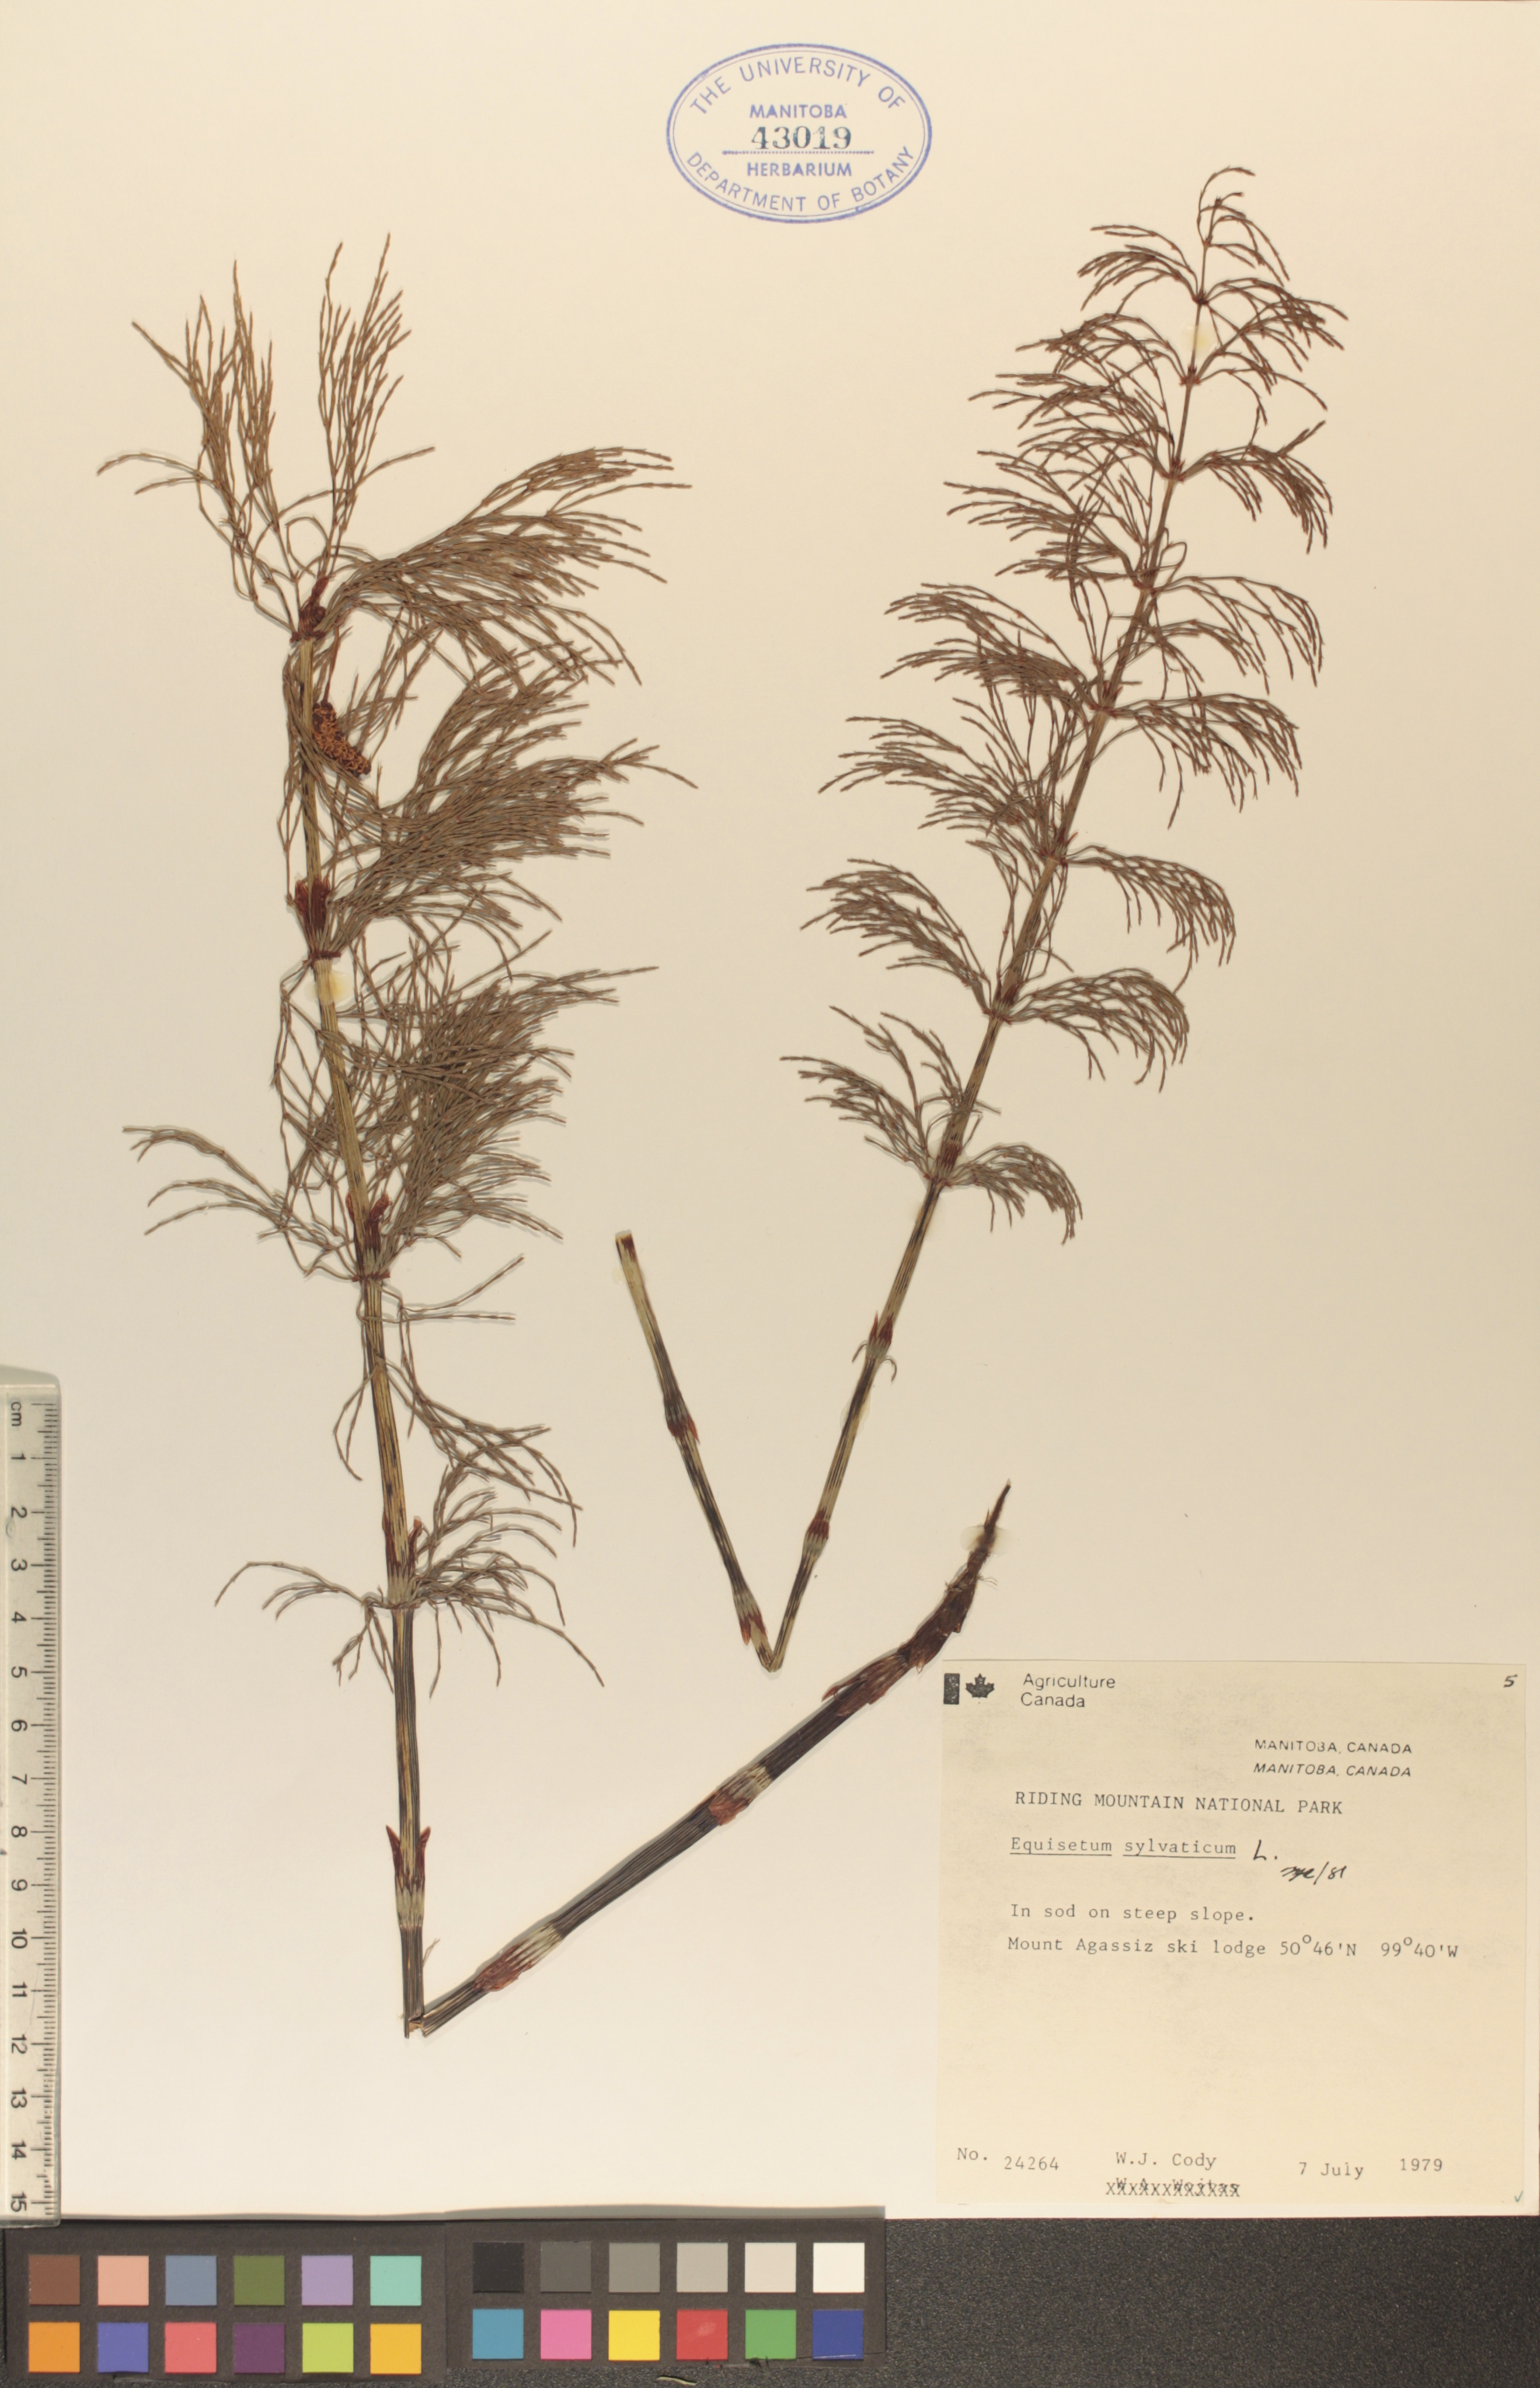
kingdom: Plantae
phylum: Tracheophyta
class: Polypodiopsida
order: Equisetales
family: Equisetaceae
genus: Equisetum
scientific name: Equisetum sylvaticum
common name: Wood horsetail
